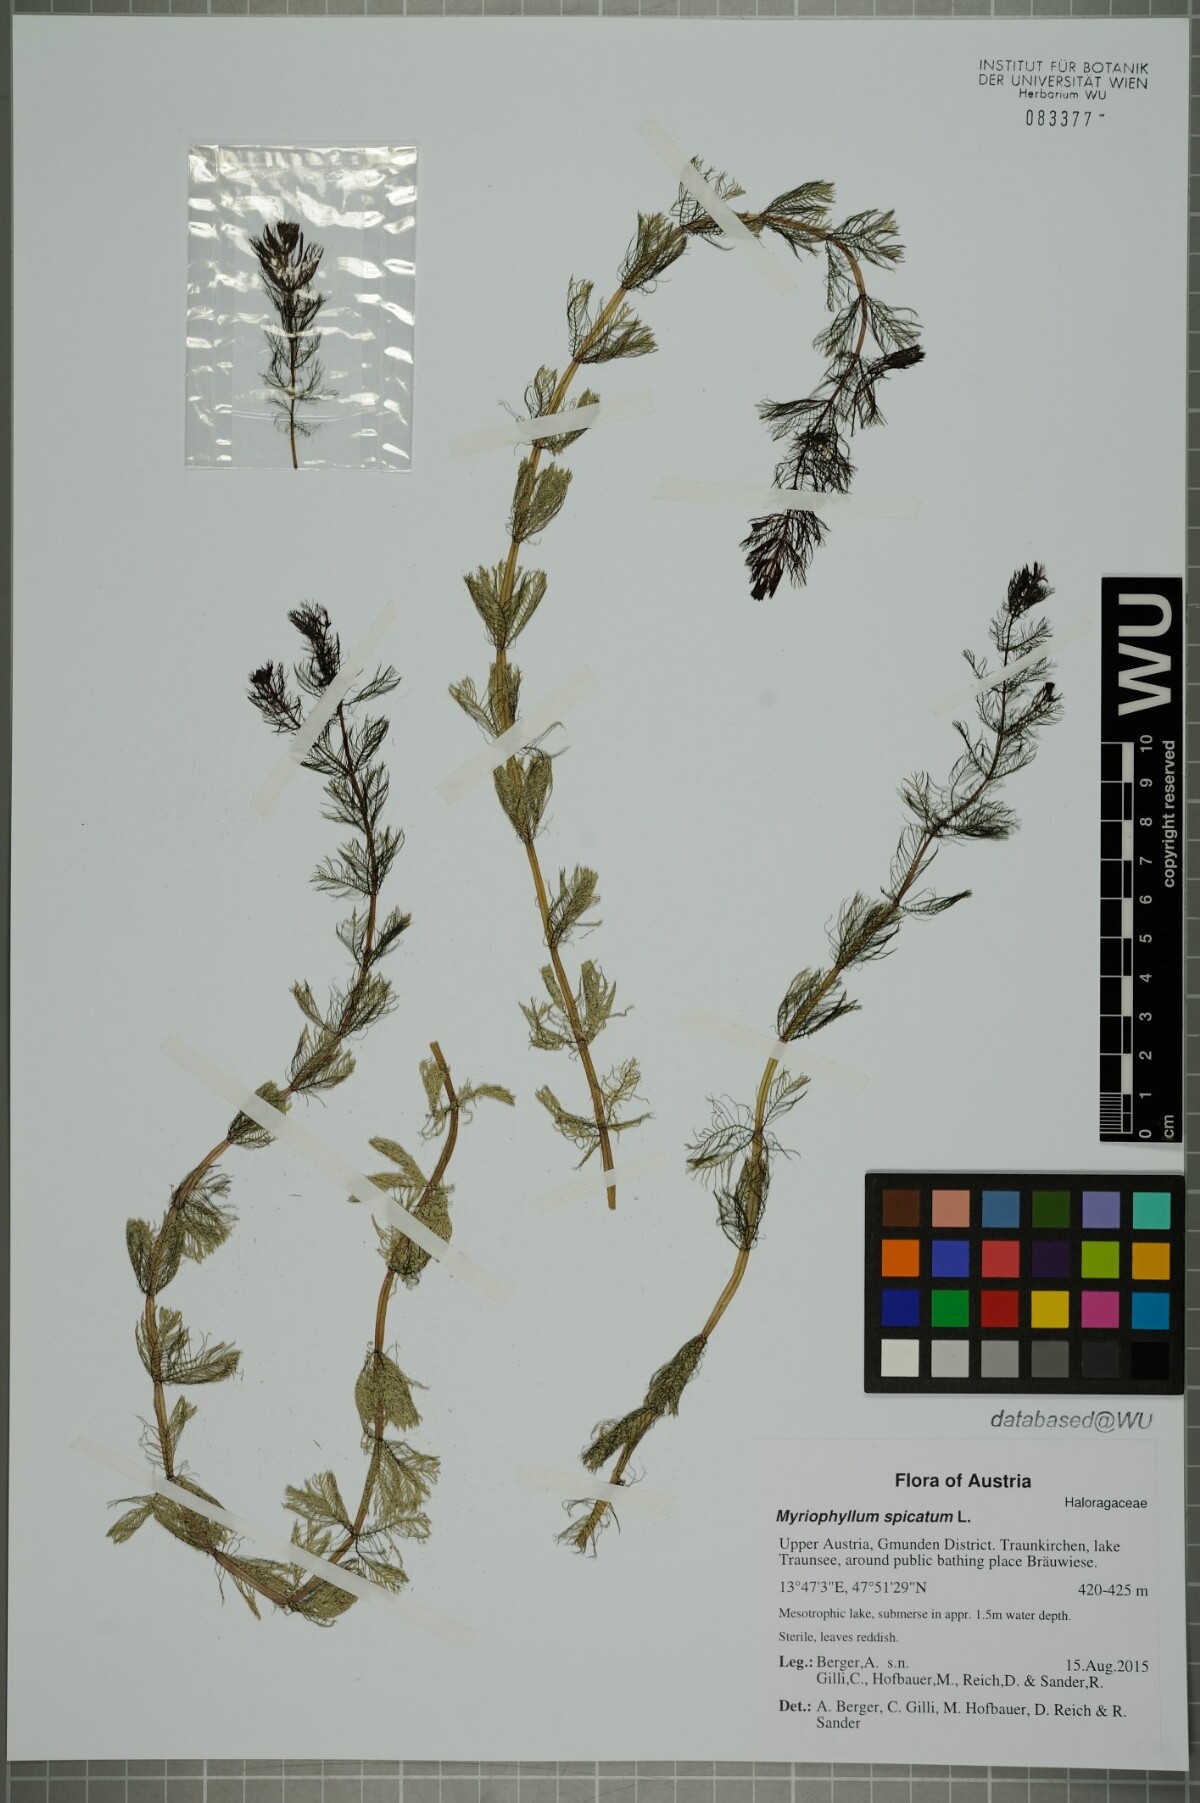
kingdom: Plantae
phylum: Tracheophyta
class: Magnoliopsida
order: Saxifragales
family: Haloragaceae
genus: Myriophyllum
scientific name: Myriophyllum spicatum
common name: Spiked water-milfoil
